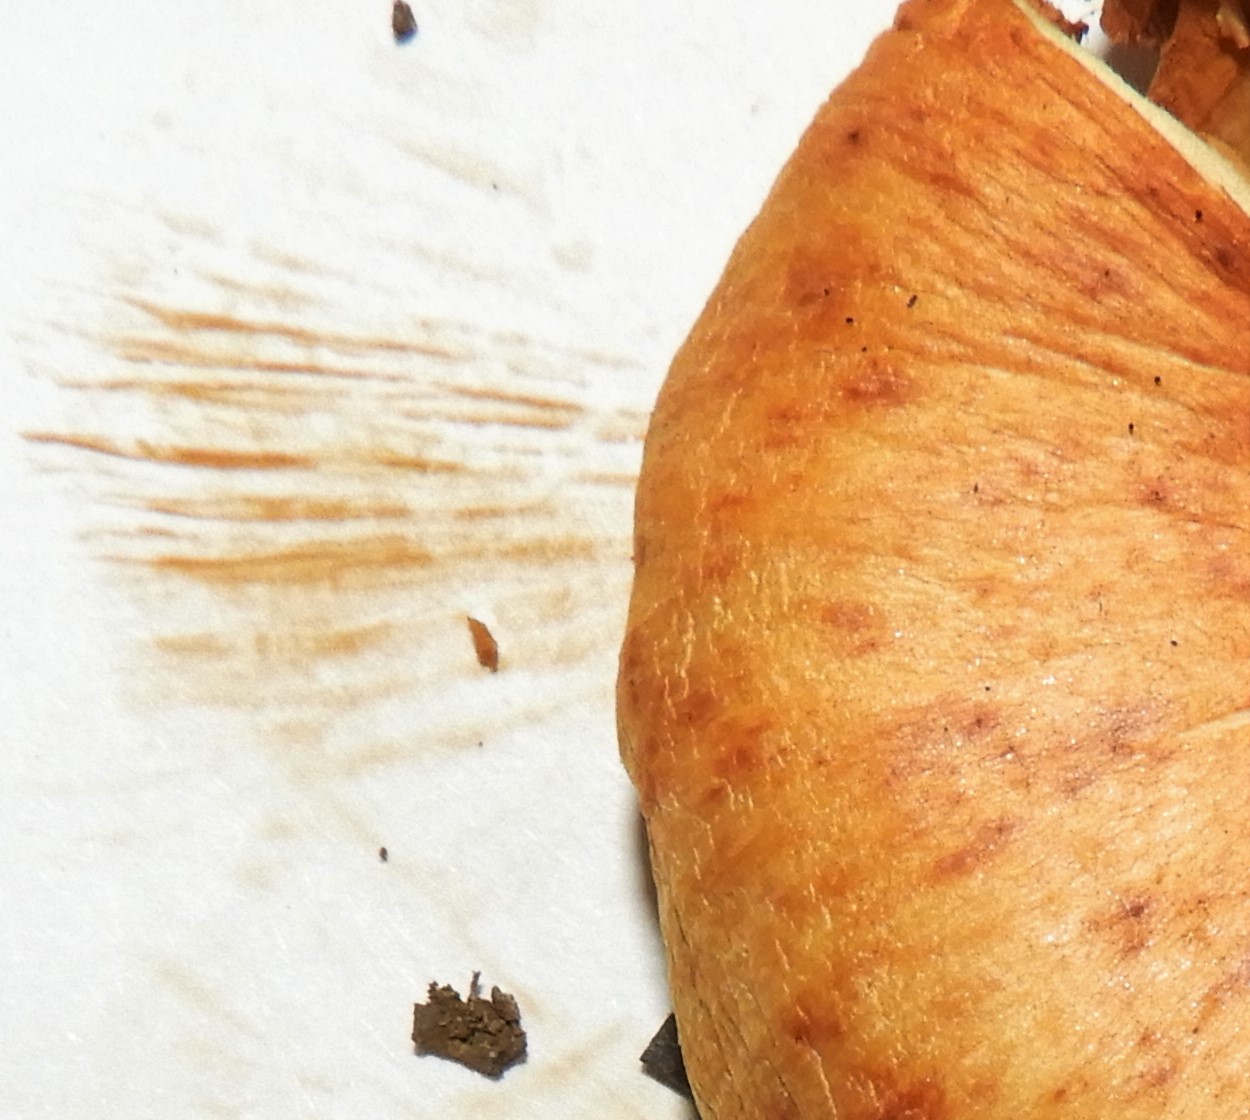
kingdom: Fungi
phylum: Basidiomycota
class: Agaricomycetes
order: Agaricales
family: Hymenogastraceae
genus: Gymnopilus
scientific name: Gymnopilus penetrans
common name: plettet flammehat
